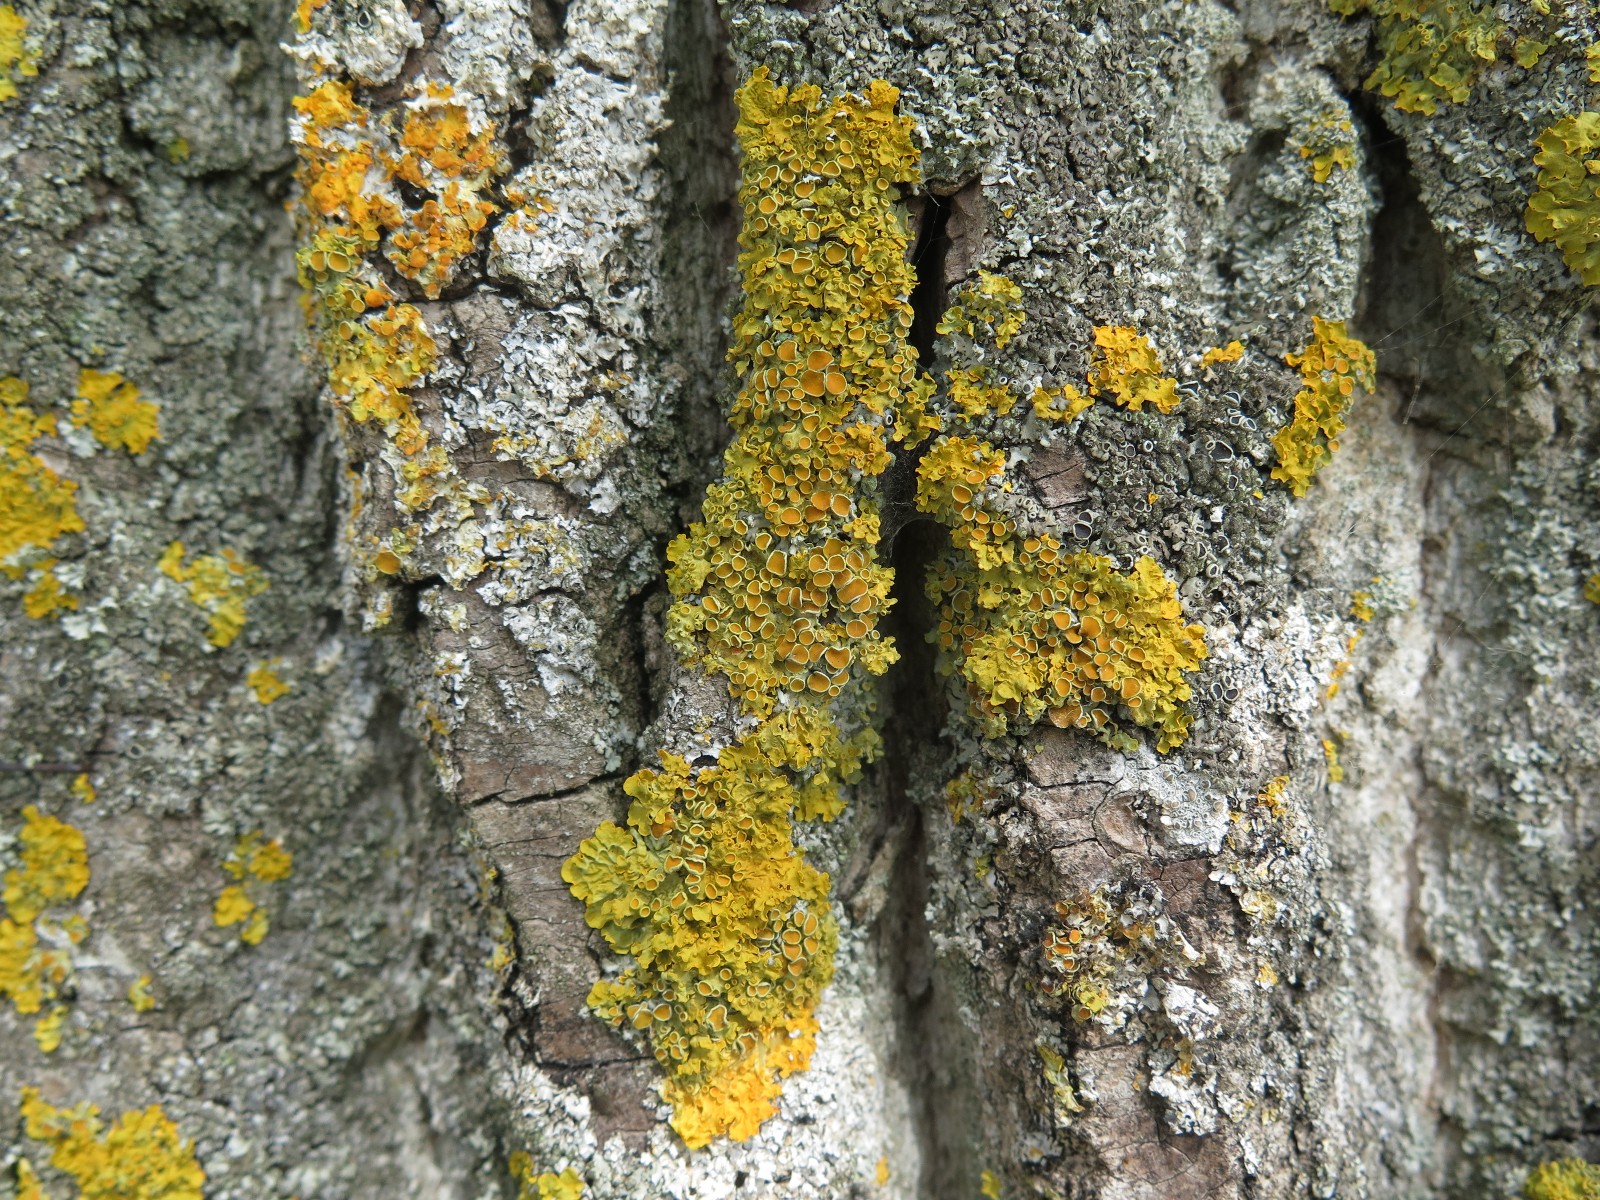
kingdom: Fungi
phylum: Ascomycota
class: Lecanoromycetes
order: Teloschistales
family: Teloschistaceae
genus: Xanthoria
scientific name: Xanthoria parietina
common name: almindelig væggelav
